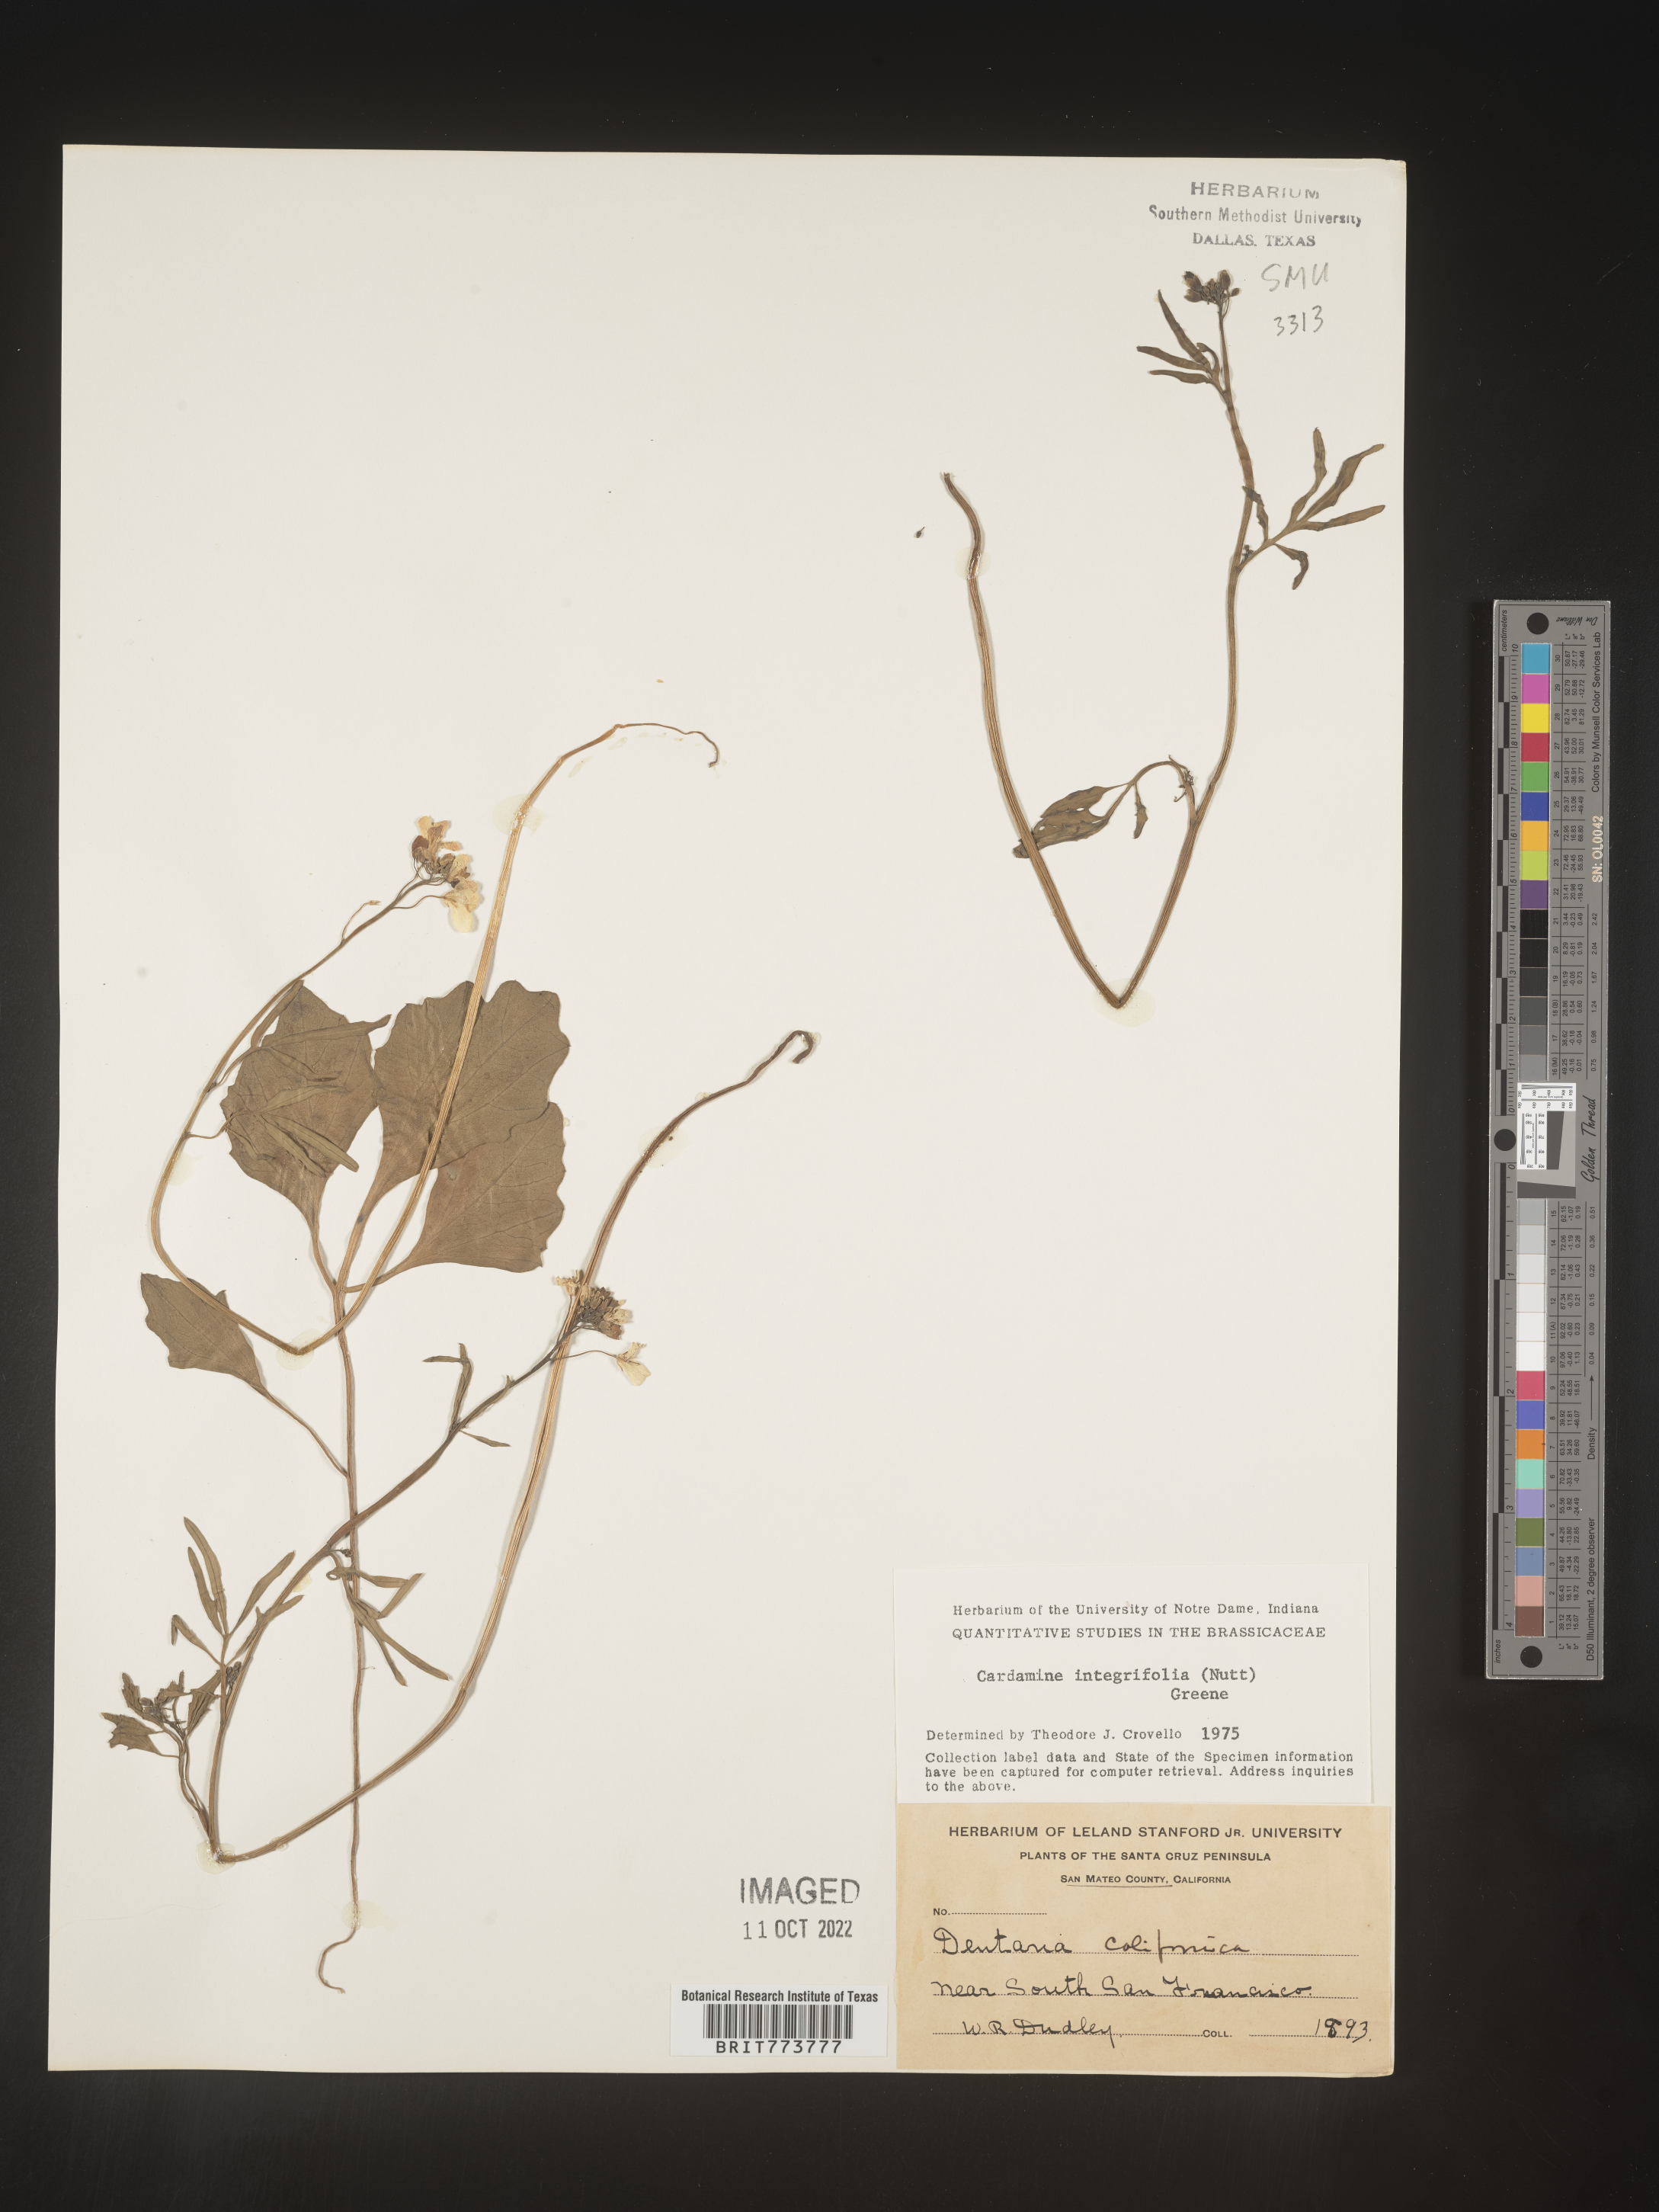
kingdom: Plantae
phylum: Tracheophyta
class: Magnoliopsida
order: Brassicales
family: Brassicaceae
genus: Cardamine
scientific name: Cardamine bellidifolia
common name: Alpine bittercress
